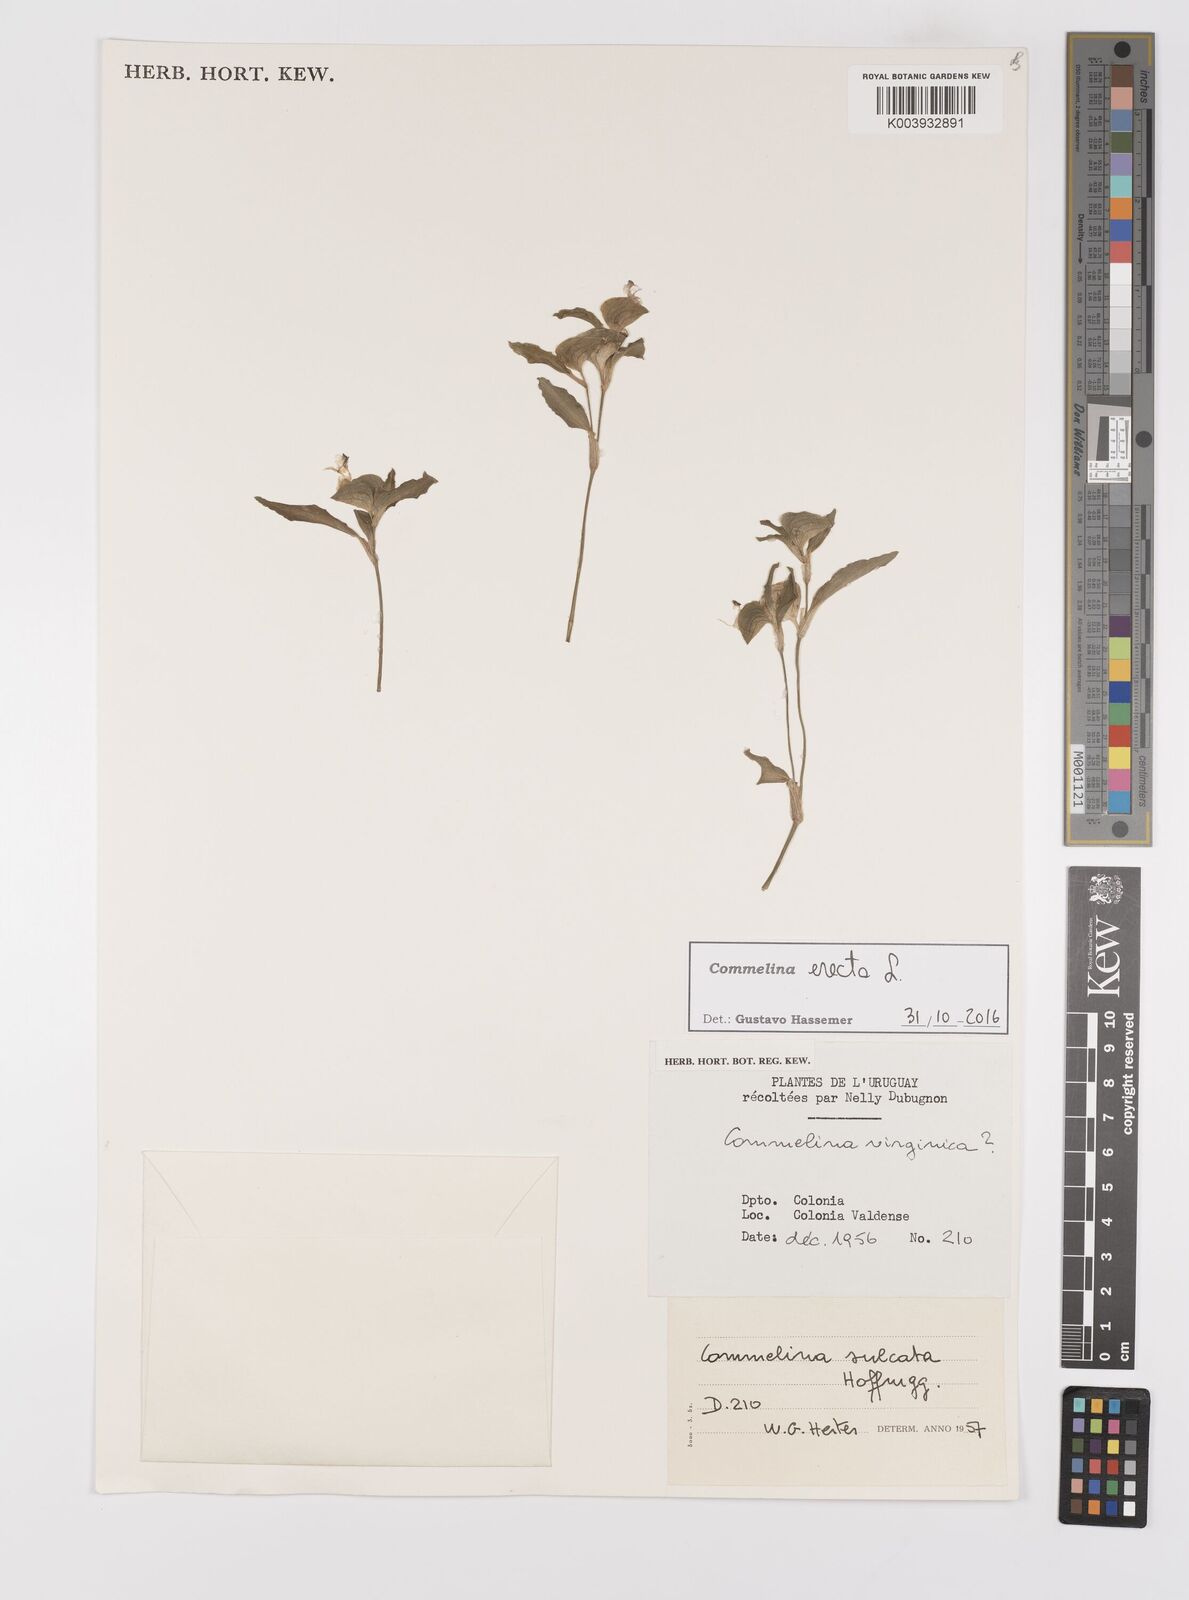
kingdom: Plantae
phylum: Tracheophyta
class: Liliopsida
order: Commelinales
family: Commelinaceae
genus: Commelina
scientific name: Commelina erecta
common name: Blousel blommetjie
